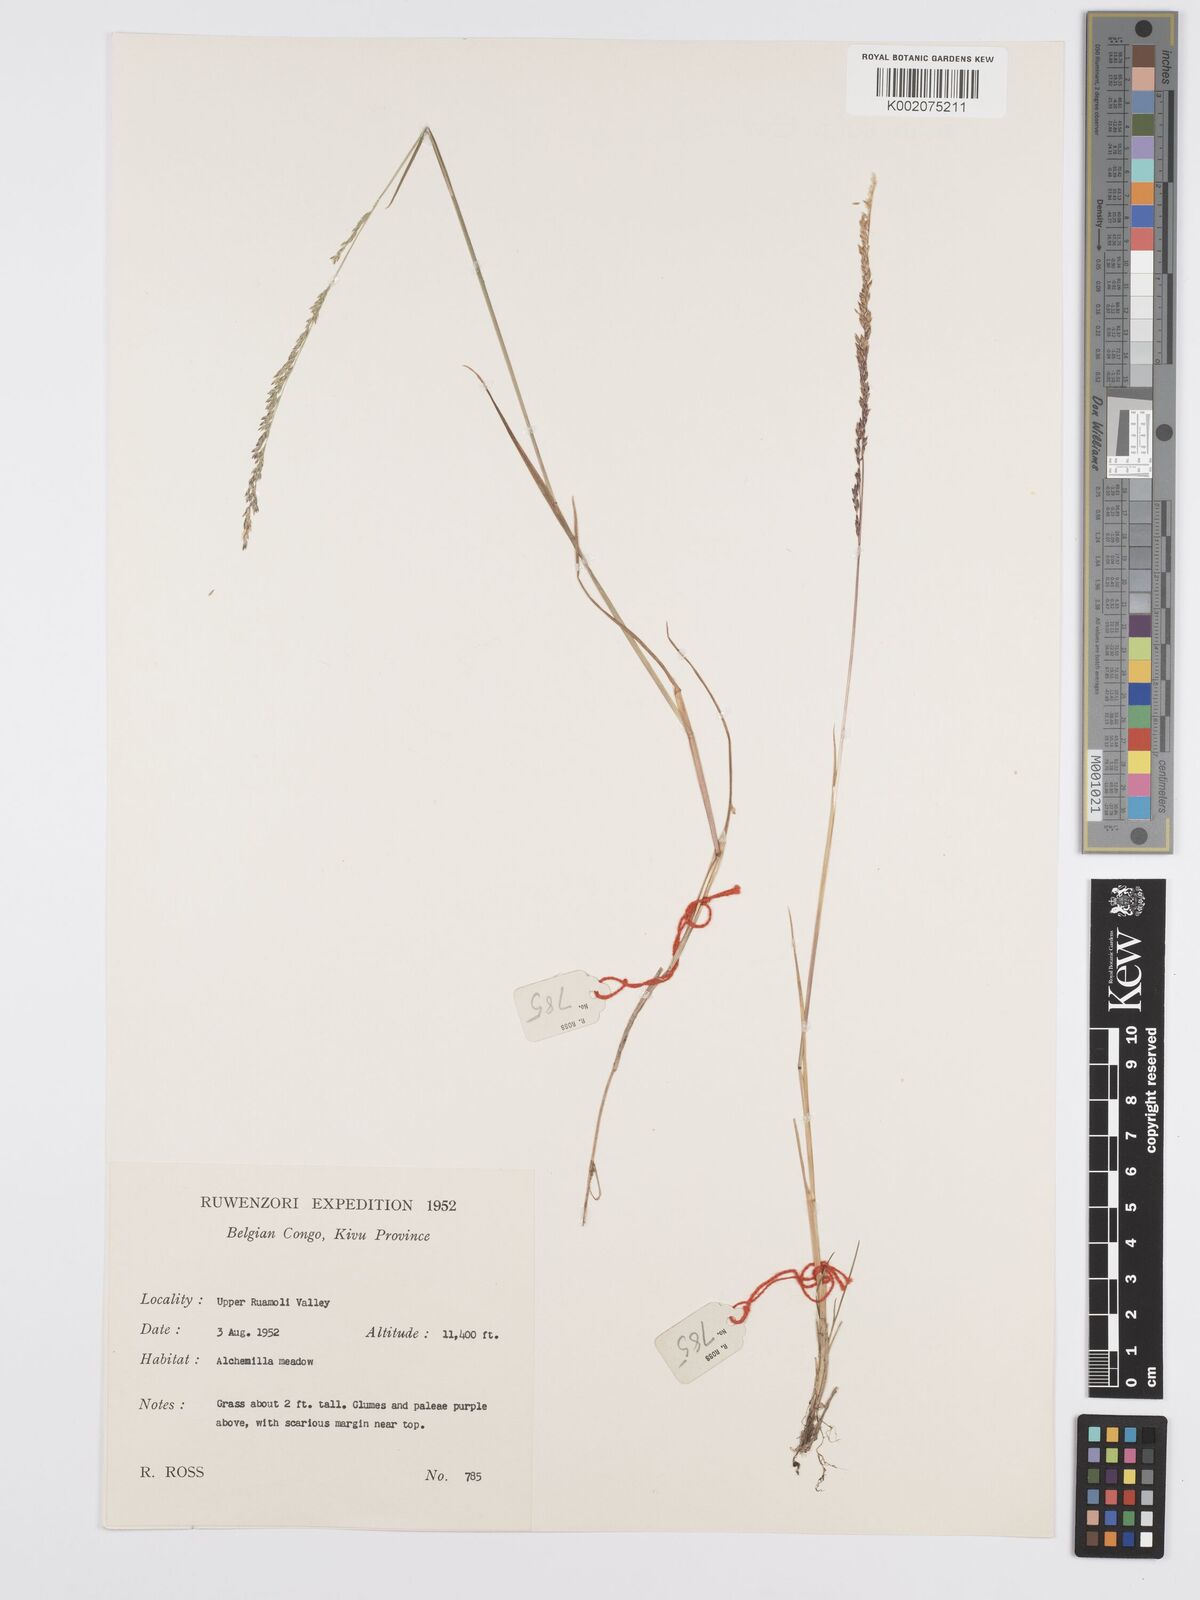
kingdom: Plantae
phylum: Tracheophyta
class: Liliopsida
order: Poales
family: Poaceae
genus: Poa
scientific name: Poa leptoclada
